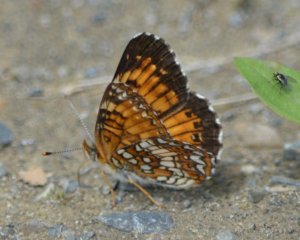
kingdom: Animalia
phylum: Arthropoda
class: Insecta
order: Lepidoptera
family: Nymphalidae
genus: Chlosyne
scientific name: Chlosyne harrisii
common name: Harris's Checkerspot
